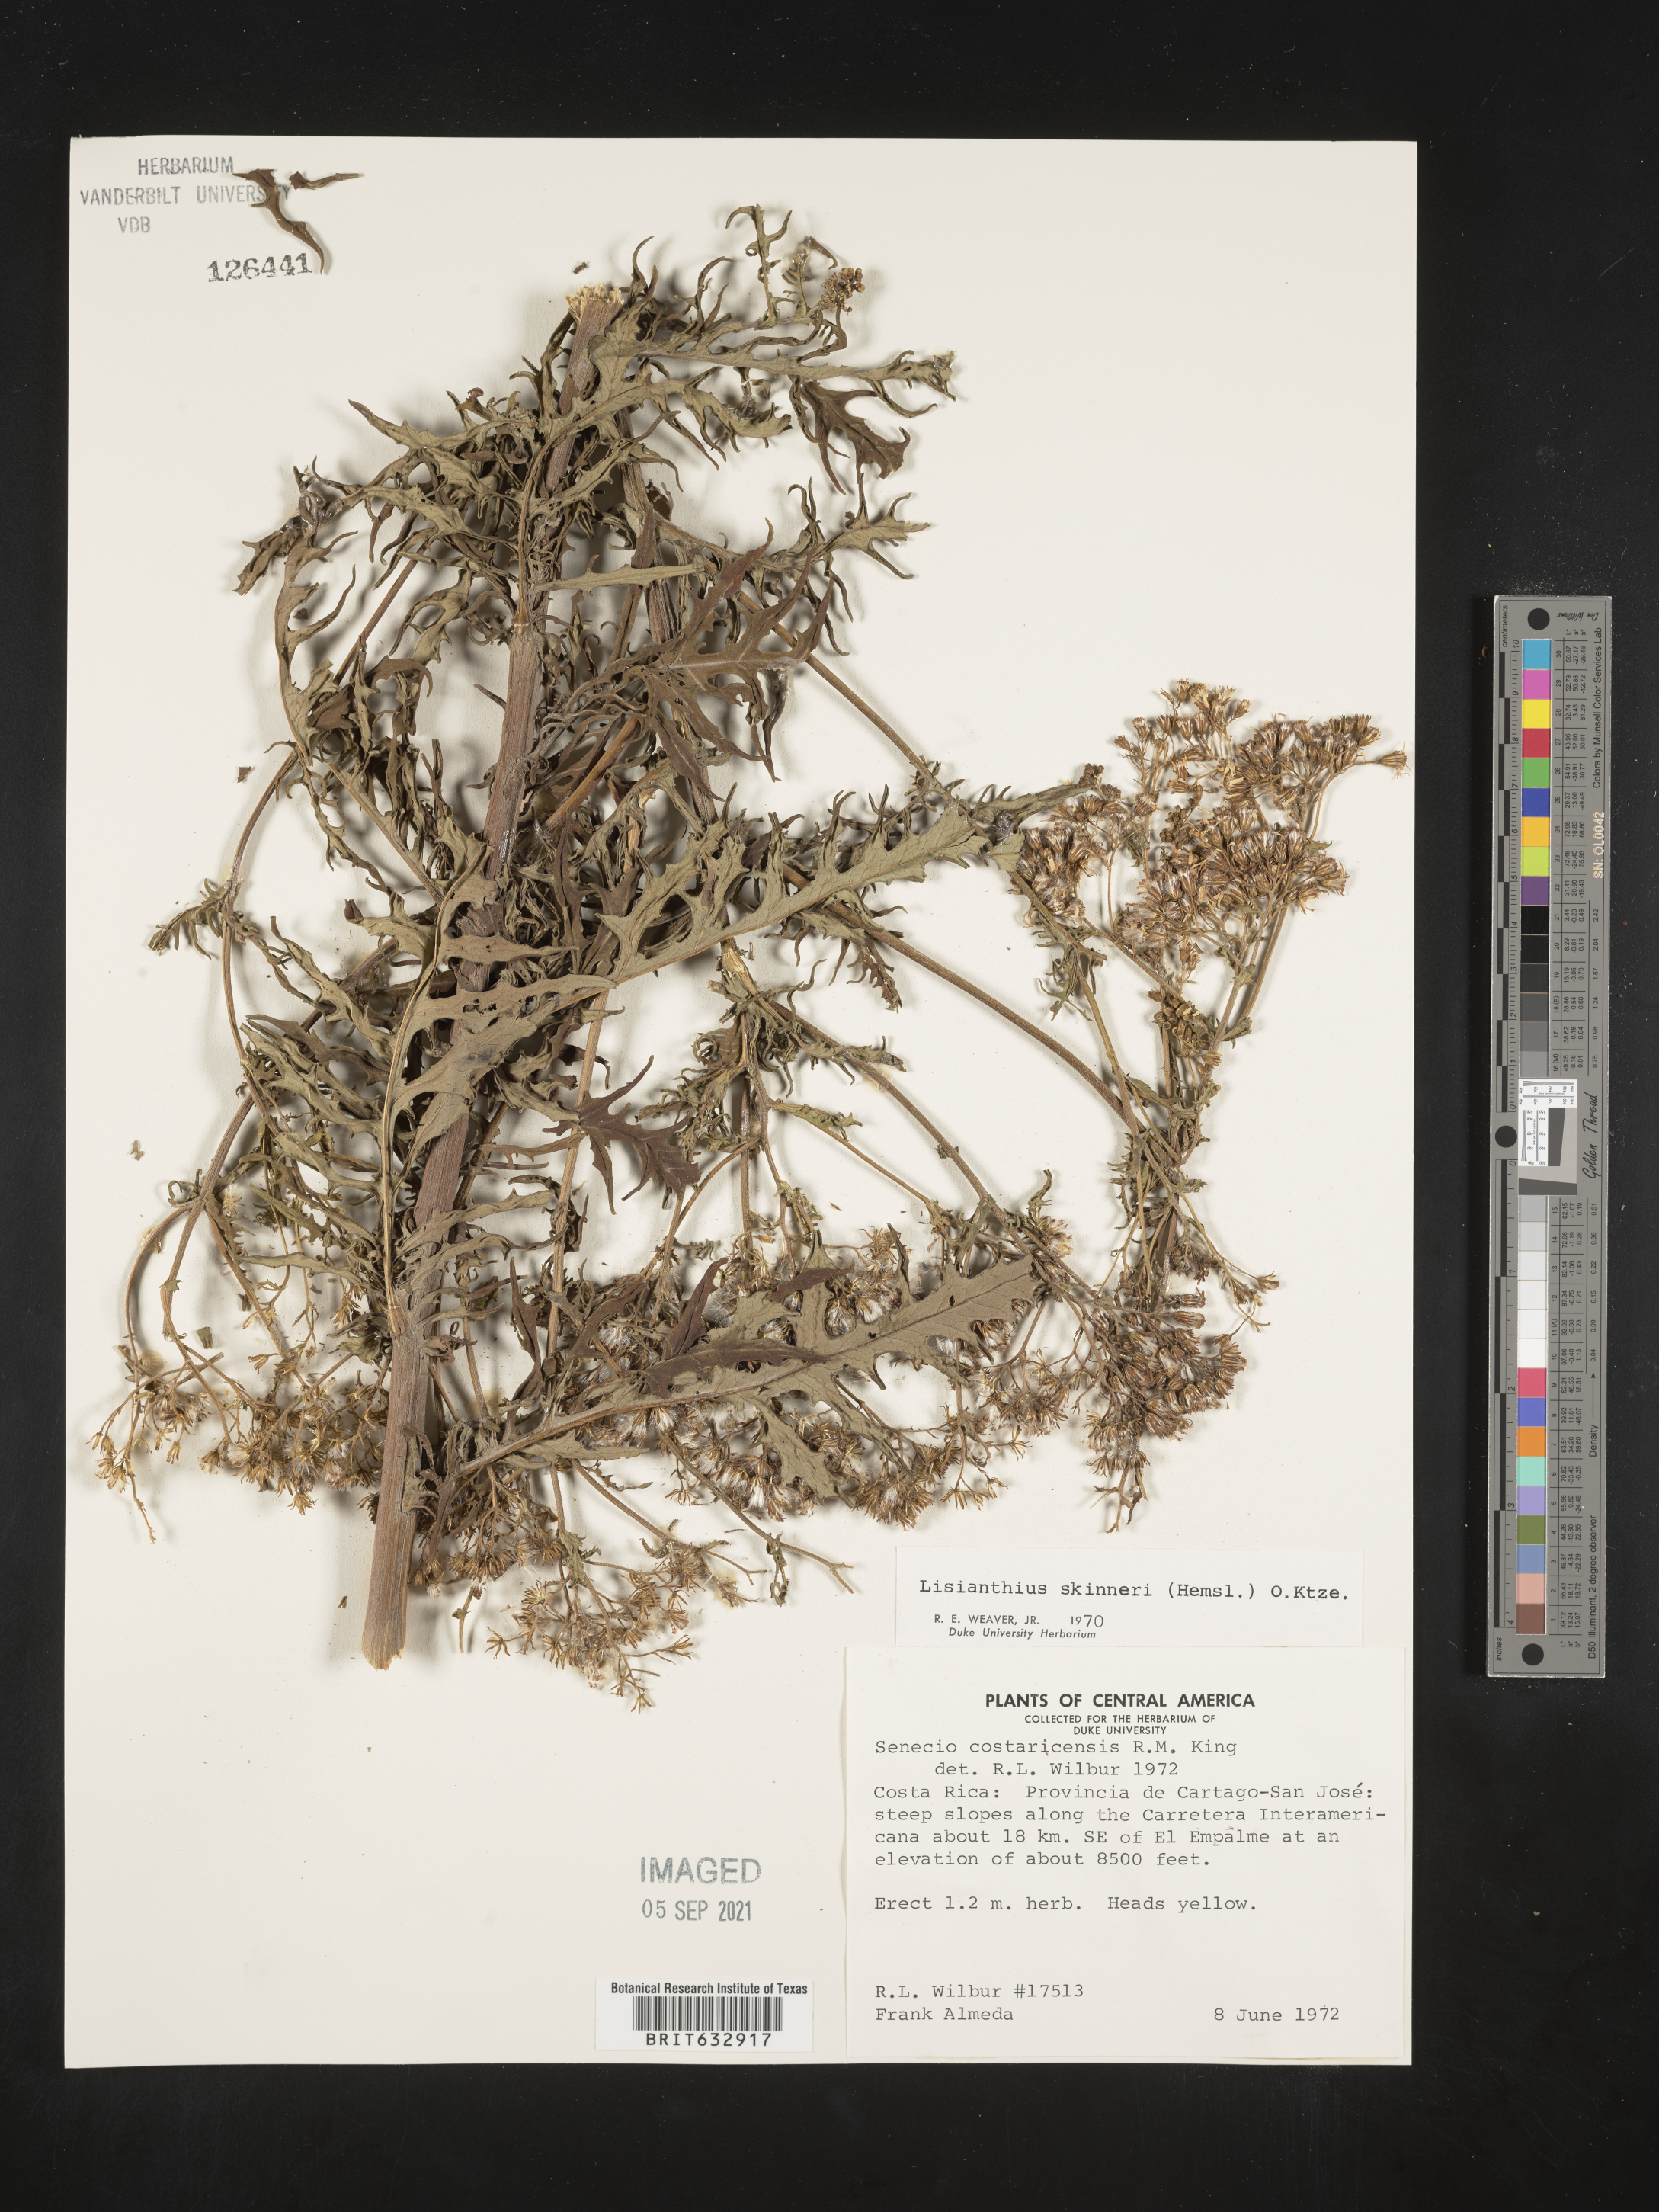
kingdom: Plantae
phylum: Tracheophyta
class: Magnoliopsida
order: Gentianales
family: Gentianaceae
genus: Lisianthus
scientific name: Lisianthus
